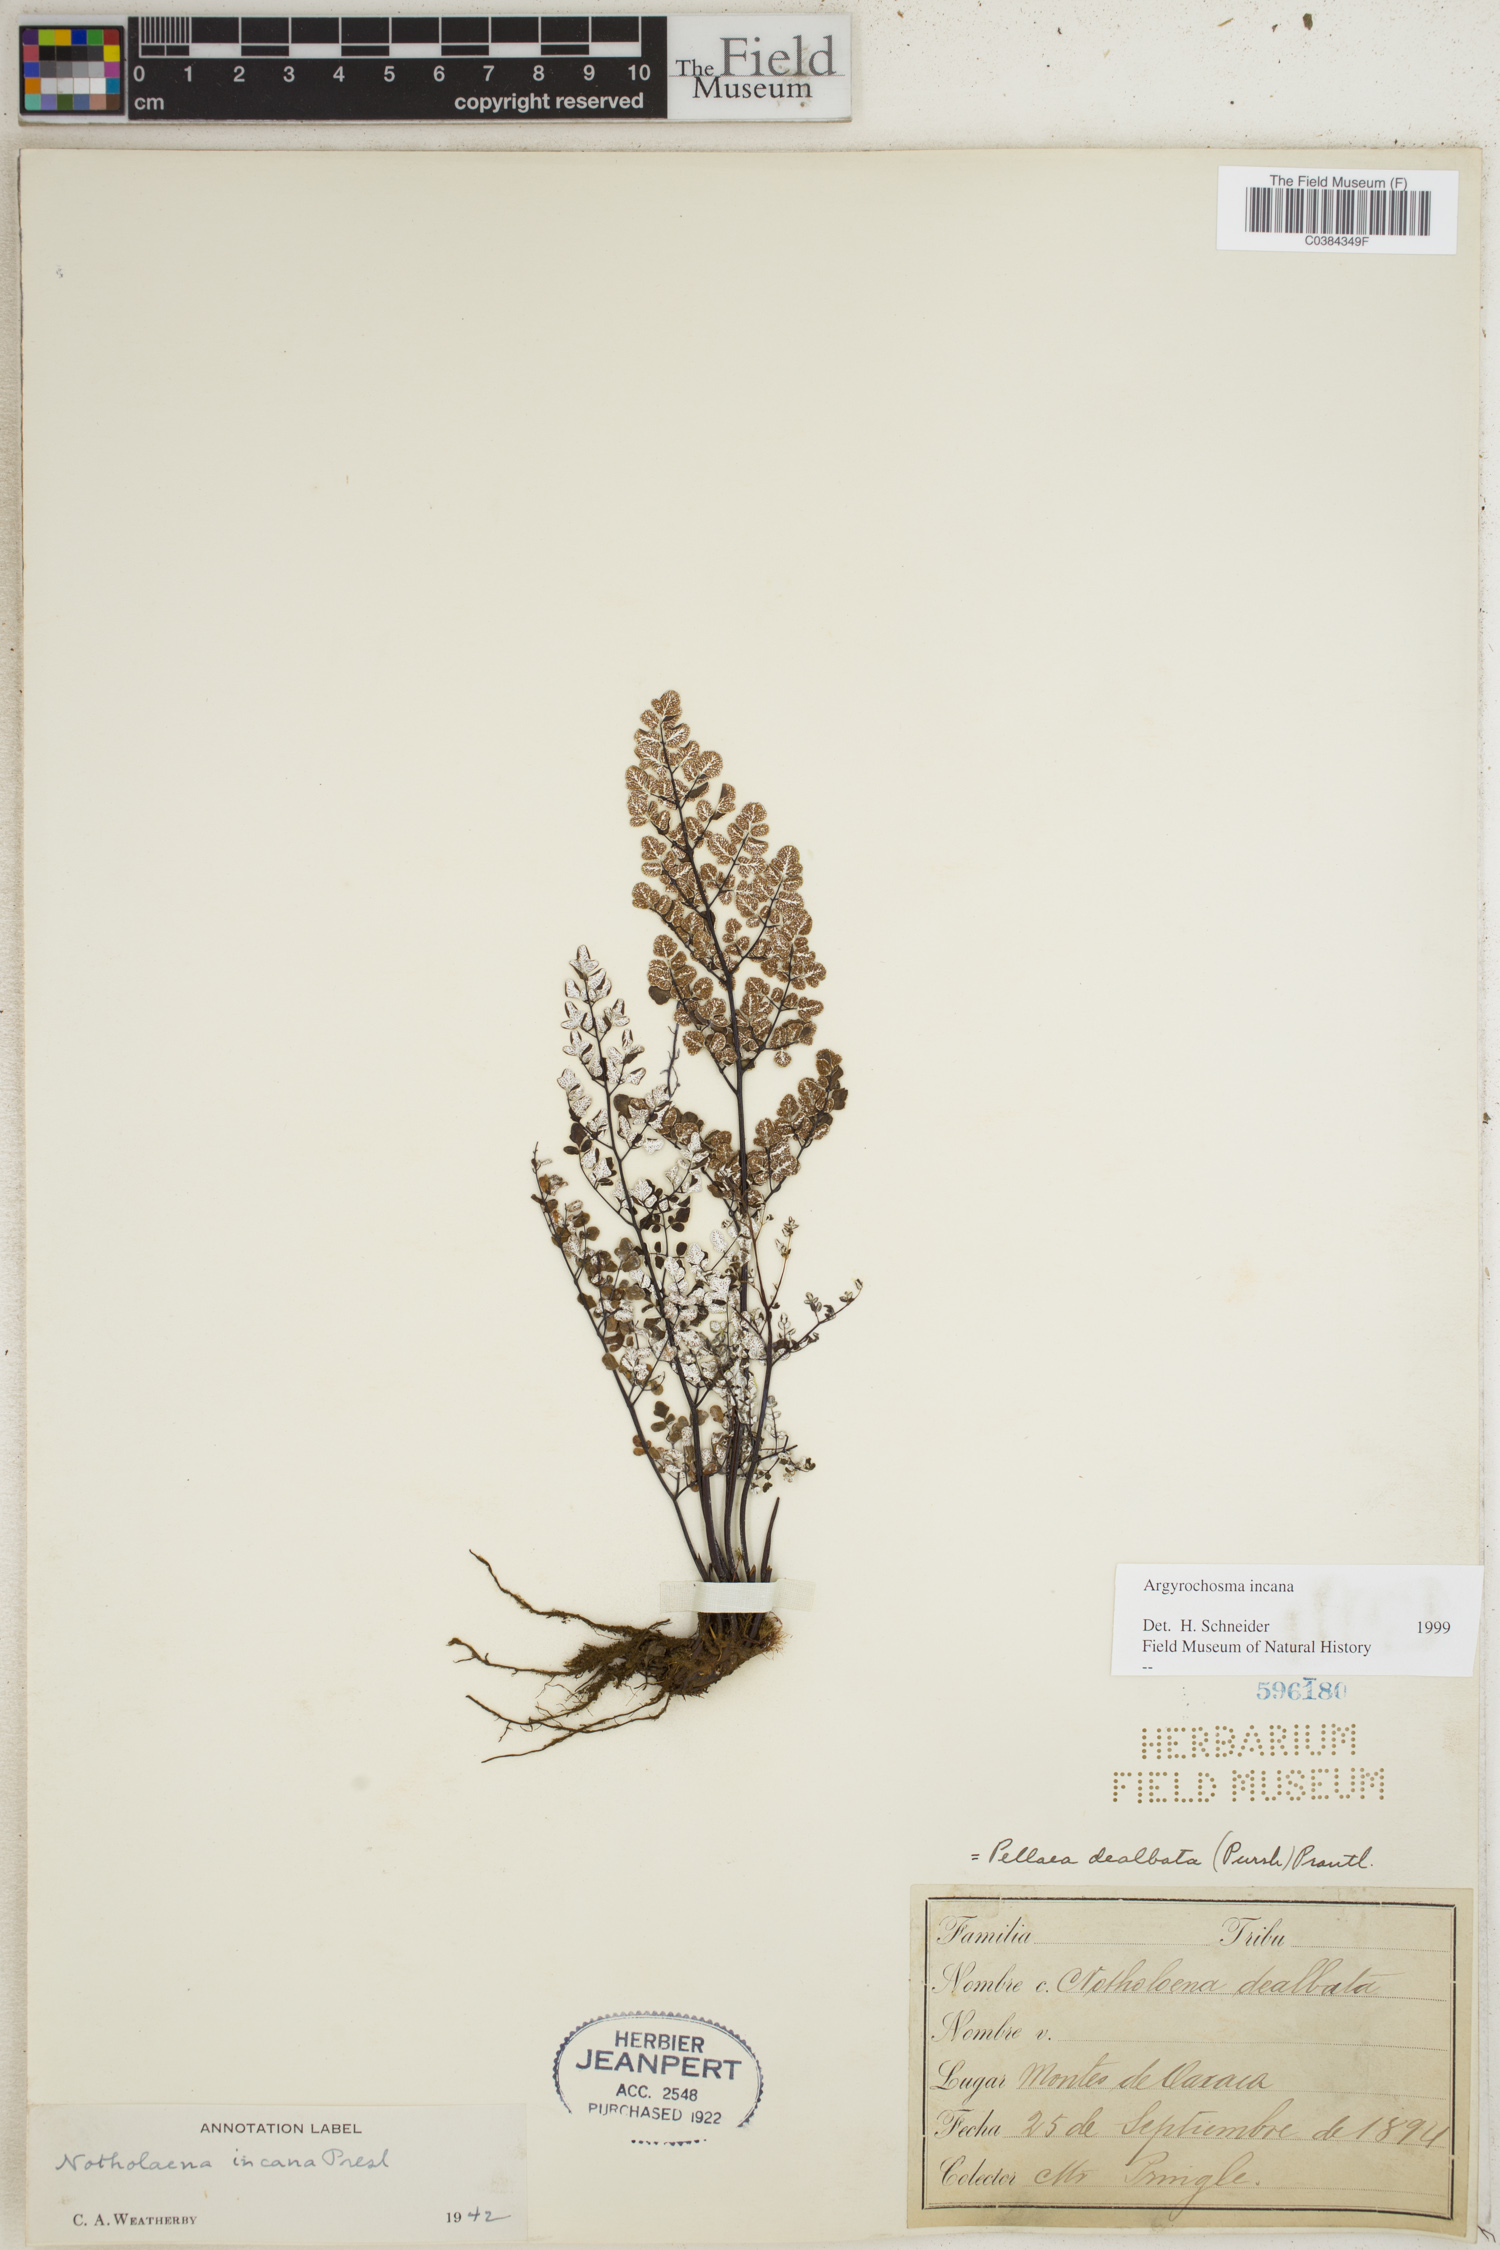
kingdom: Plantae
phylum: Tracheophyta
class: Polypodiopsida
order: Polypodiales
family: Pteridaceae
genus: Argyrochosma
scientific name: Argyrochosma incana
